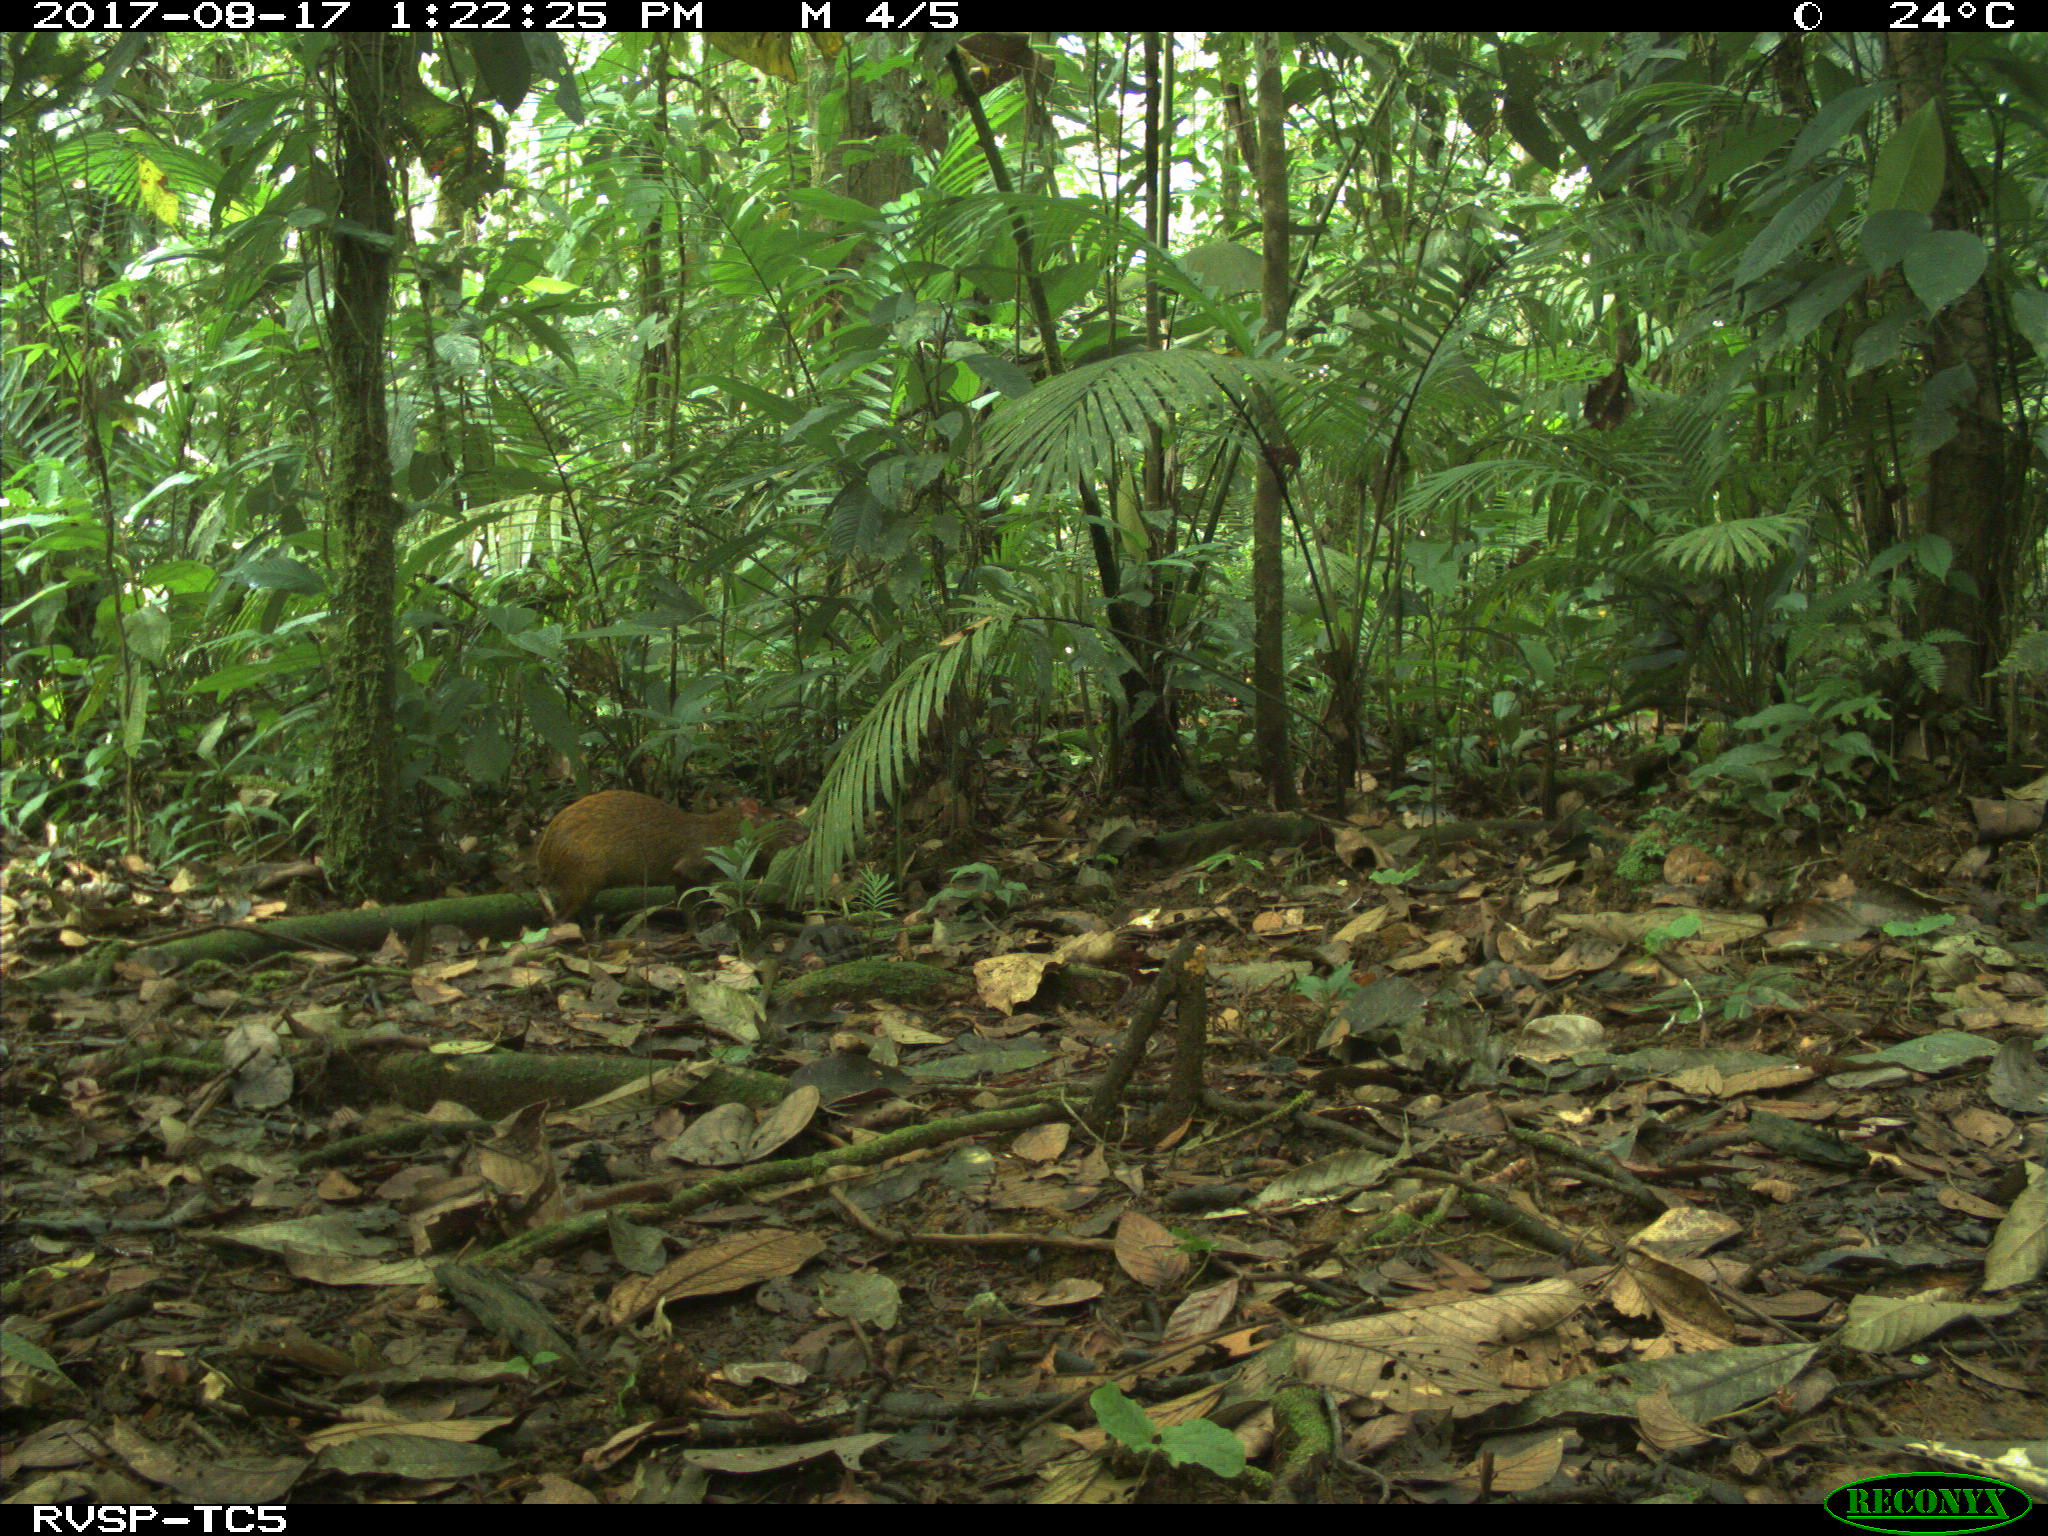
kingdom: Animalia
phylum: Chordata
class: Mammalia
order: Rodentia
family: Dasyproctidae
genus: Dasyprocta
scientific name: Dasyprocta punctata
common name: Central american agouti
